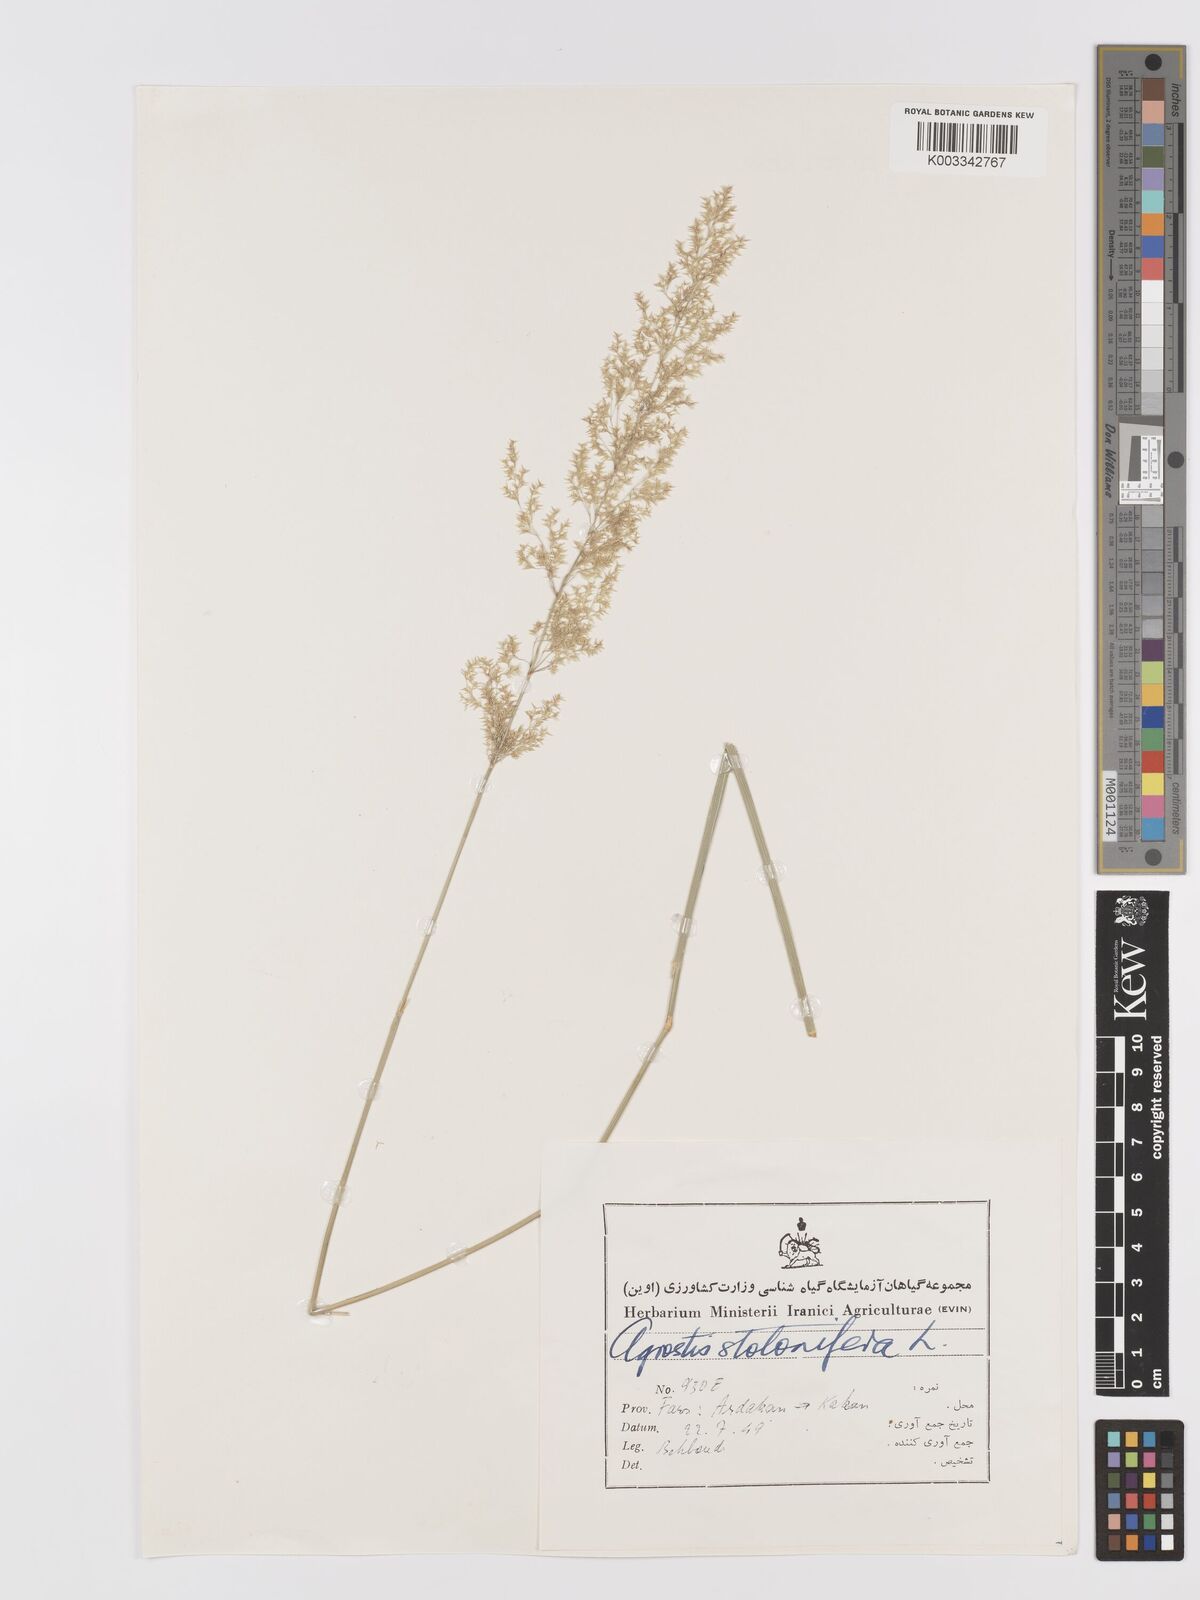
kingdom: Plantae
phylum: Tracheophyta
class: Liliopsida
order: Poales
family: Poaceae
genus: Agrostis
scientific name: Agrostis stolonifera
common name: Creeping bentgrass
